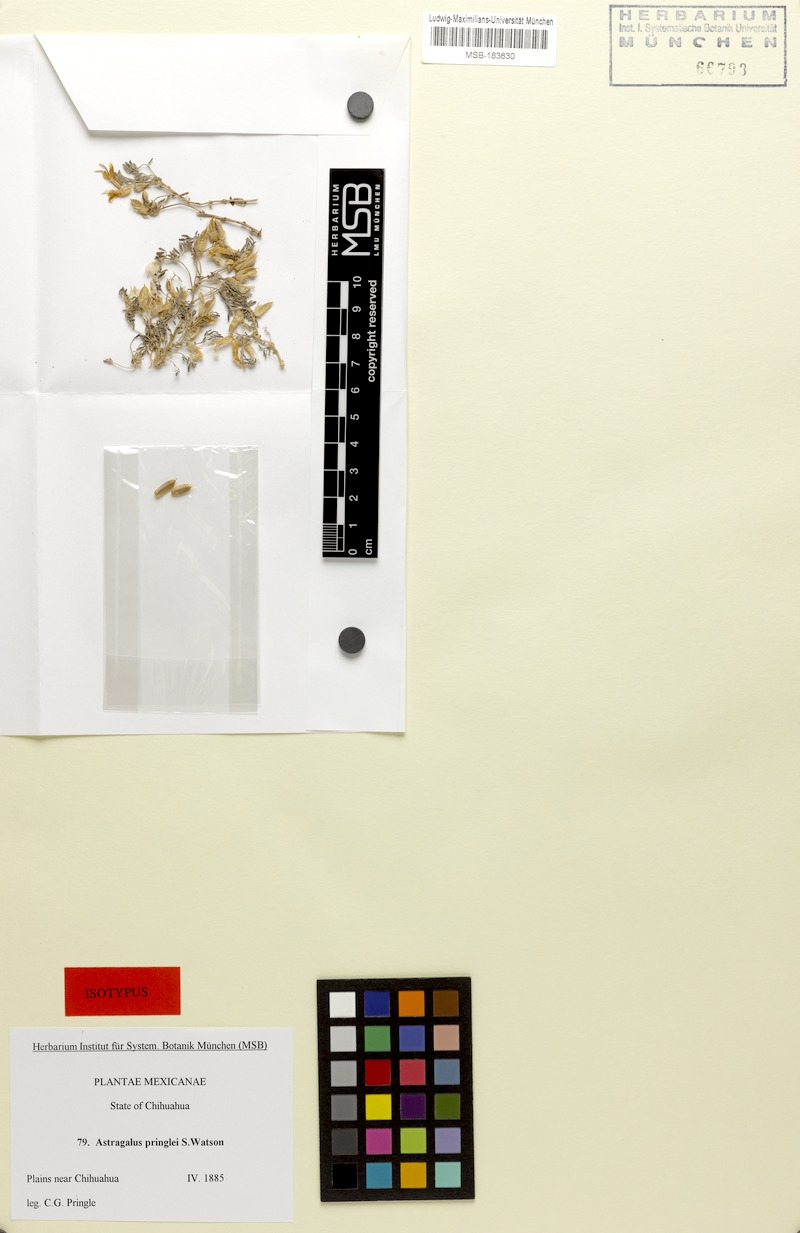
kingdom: Plantae
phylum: Tracheophyta
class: Magnoliopsida
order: Fabales
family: Fabaceae
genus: Astragalus
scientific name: Astragalus pringlei
